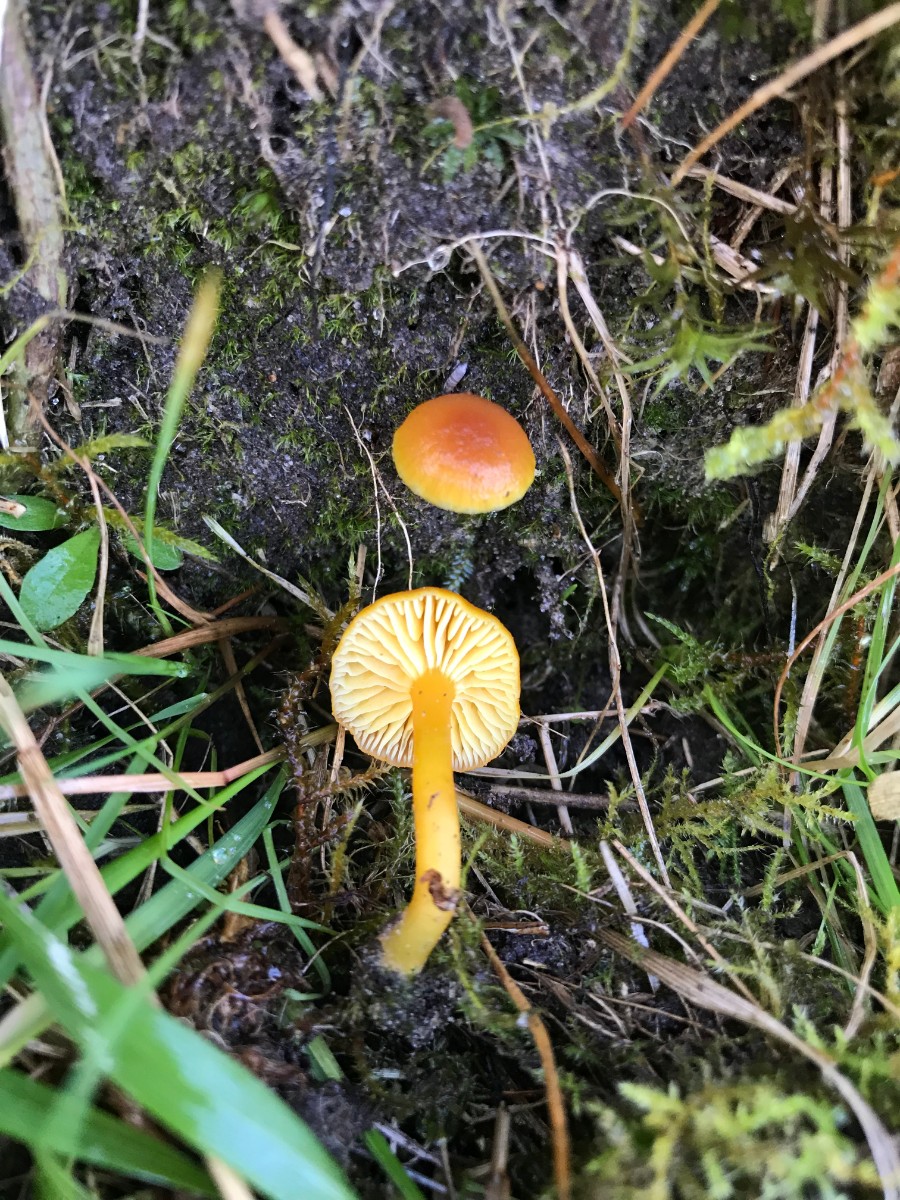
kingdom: Fungi
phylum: Basidiomycota
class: Agaricomycetes
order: Agaricales
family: Hygrophoraceae
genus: Hygrocybe
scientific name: Hygrocybe miniata
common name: mønje-vokshat
